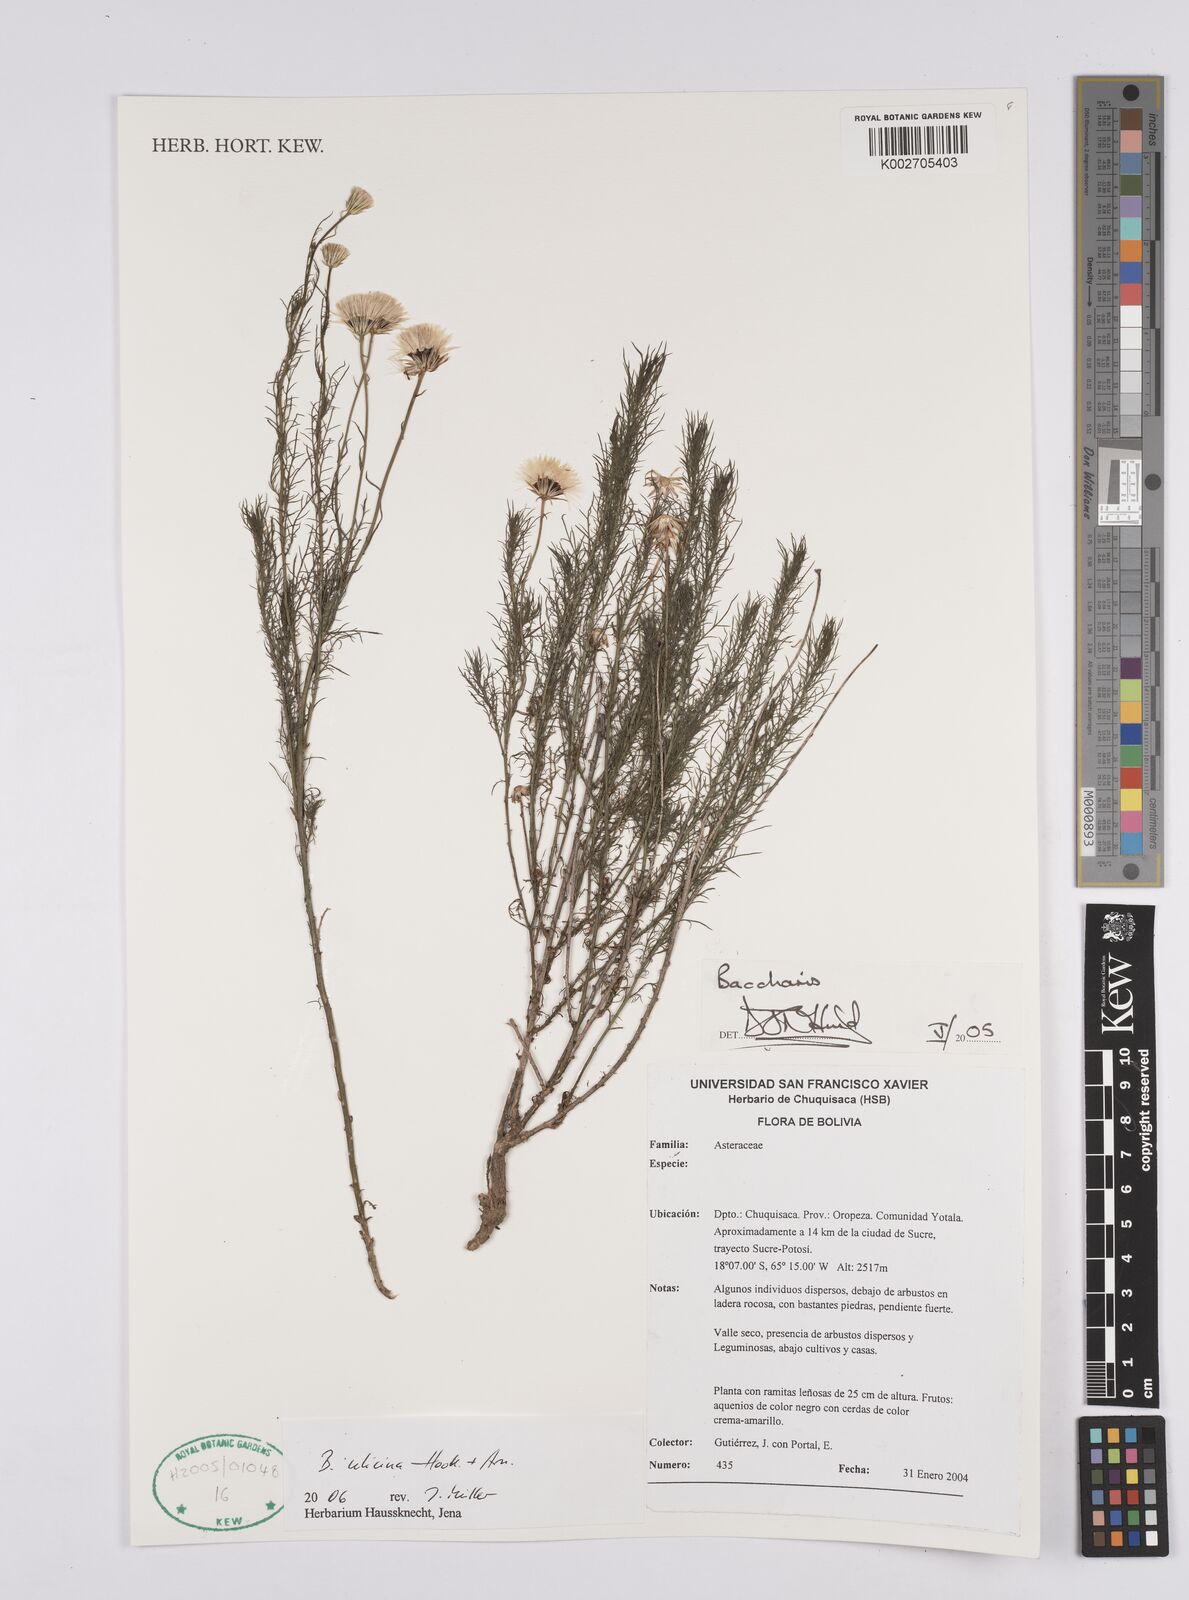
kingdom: Plantae
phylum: Tracheophyta
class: Magnoliopsida
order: Asterales
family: Asteraceae
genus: Baccharis
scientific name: Baccharis ulicina
